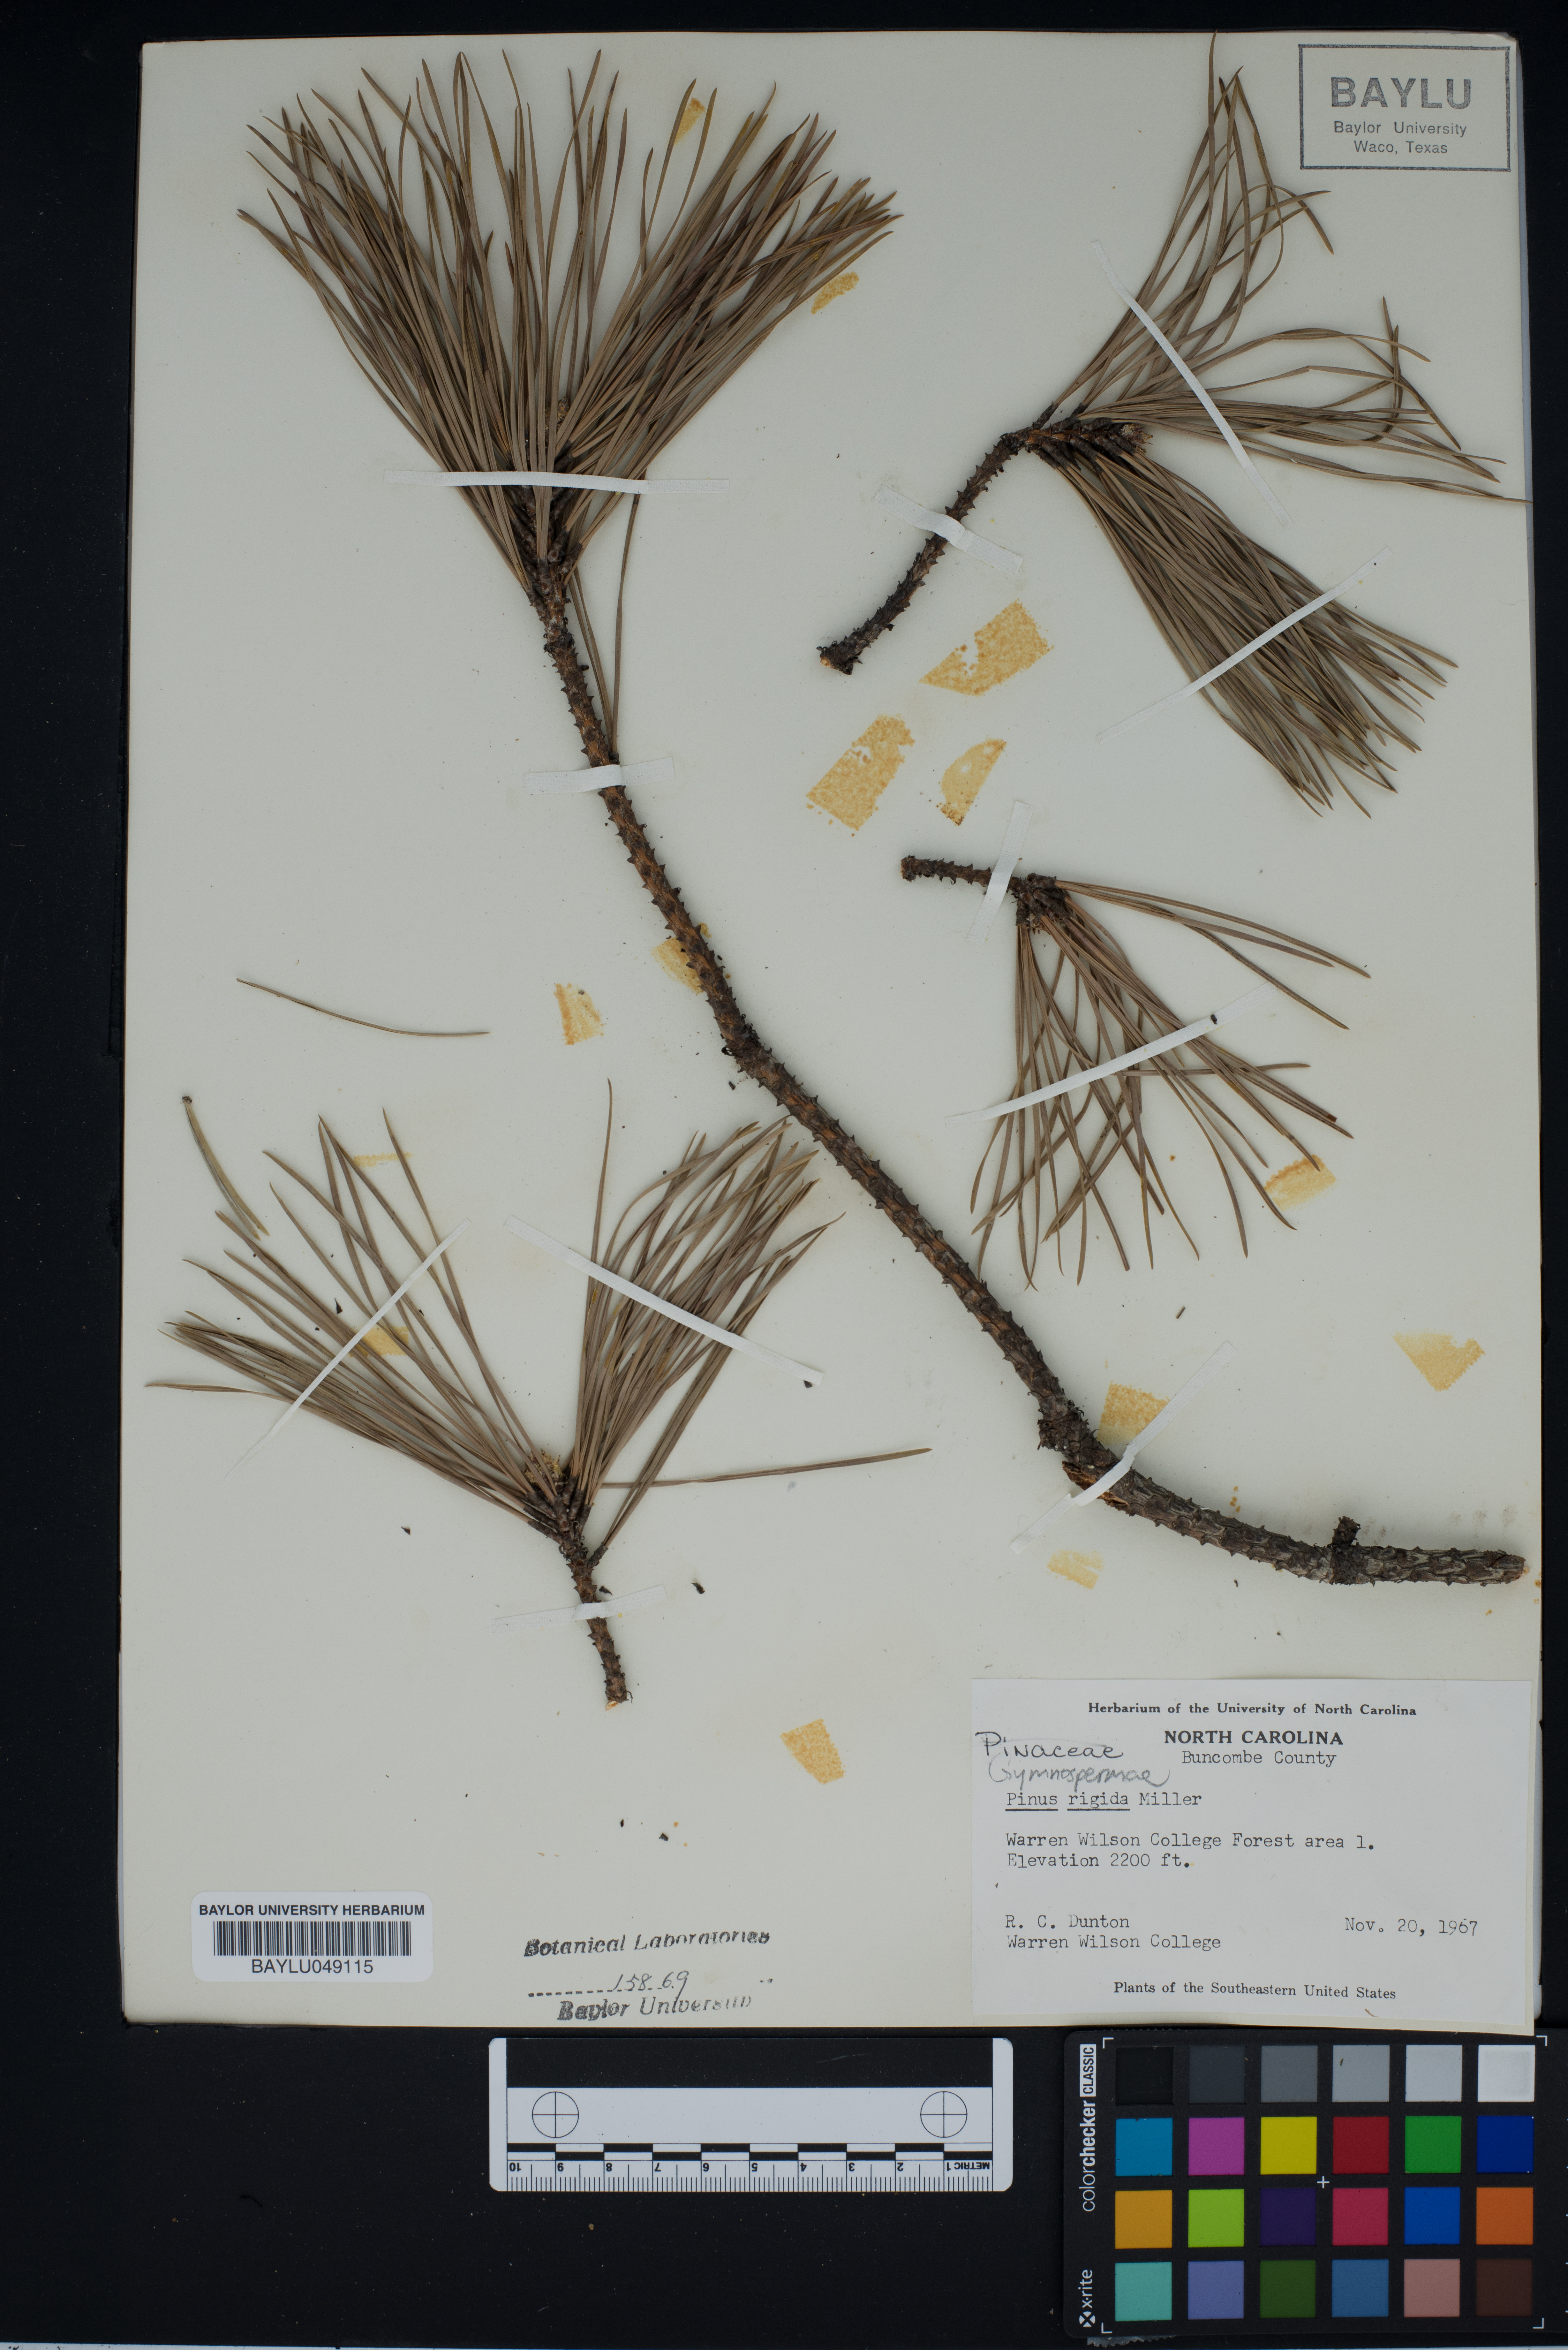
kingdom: Plantae
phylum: Tracheophyta
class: Pinopsida
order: Pinales
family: Pinaceae
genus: Pinus
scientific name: Pinus rigida
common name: Pitch pine
